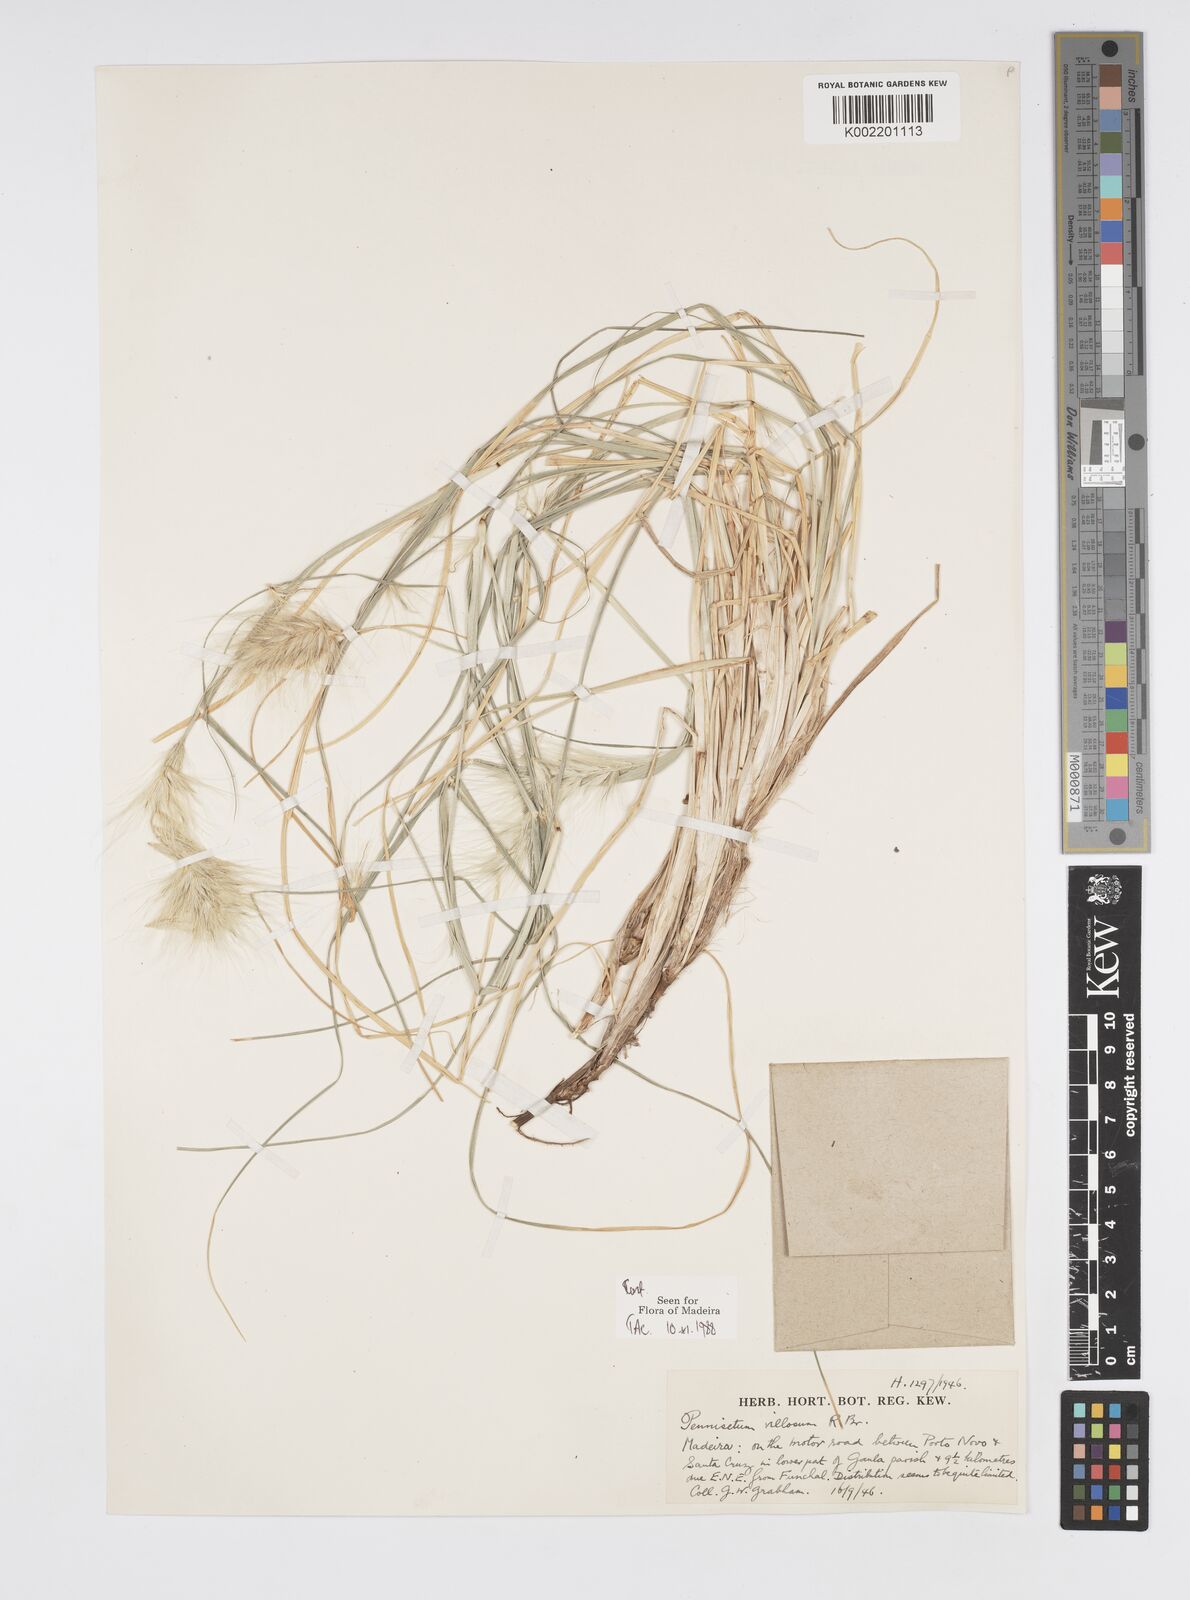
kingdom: Plantae
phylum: Tracheophyta
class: Liliopsida
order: Poales
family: Poaceae
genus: Cenchrus
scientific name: Cenchrus longisetus
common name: Feathertop
